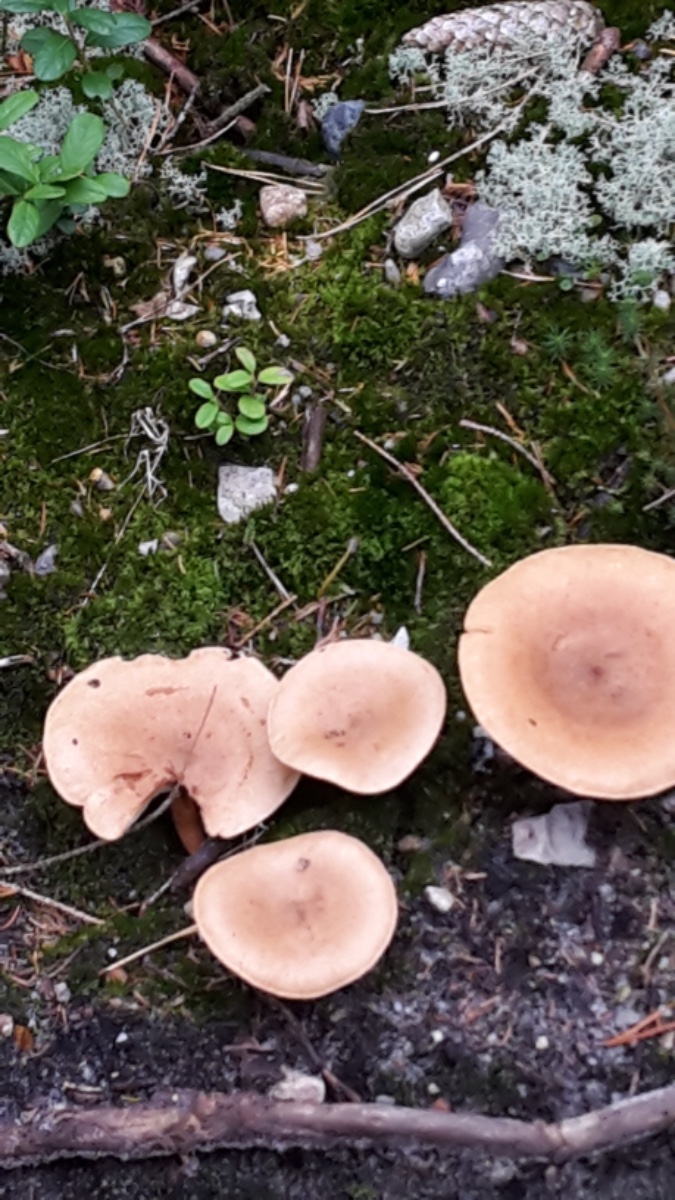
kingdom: Fungi
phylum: Basidiomycota
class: Agaricomycetes
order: Russulales
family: Russulaceae
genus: Lactarius
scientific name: Lactarius helvus
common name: mose-mælkehat
